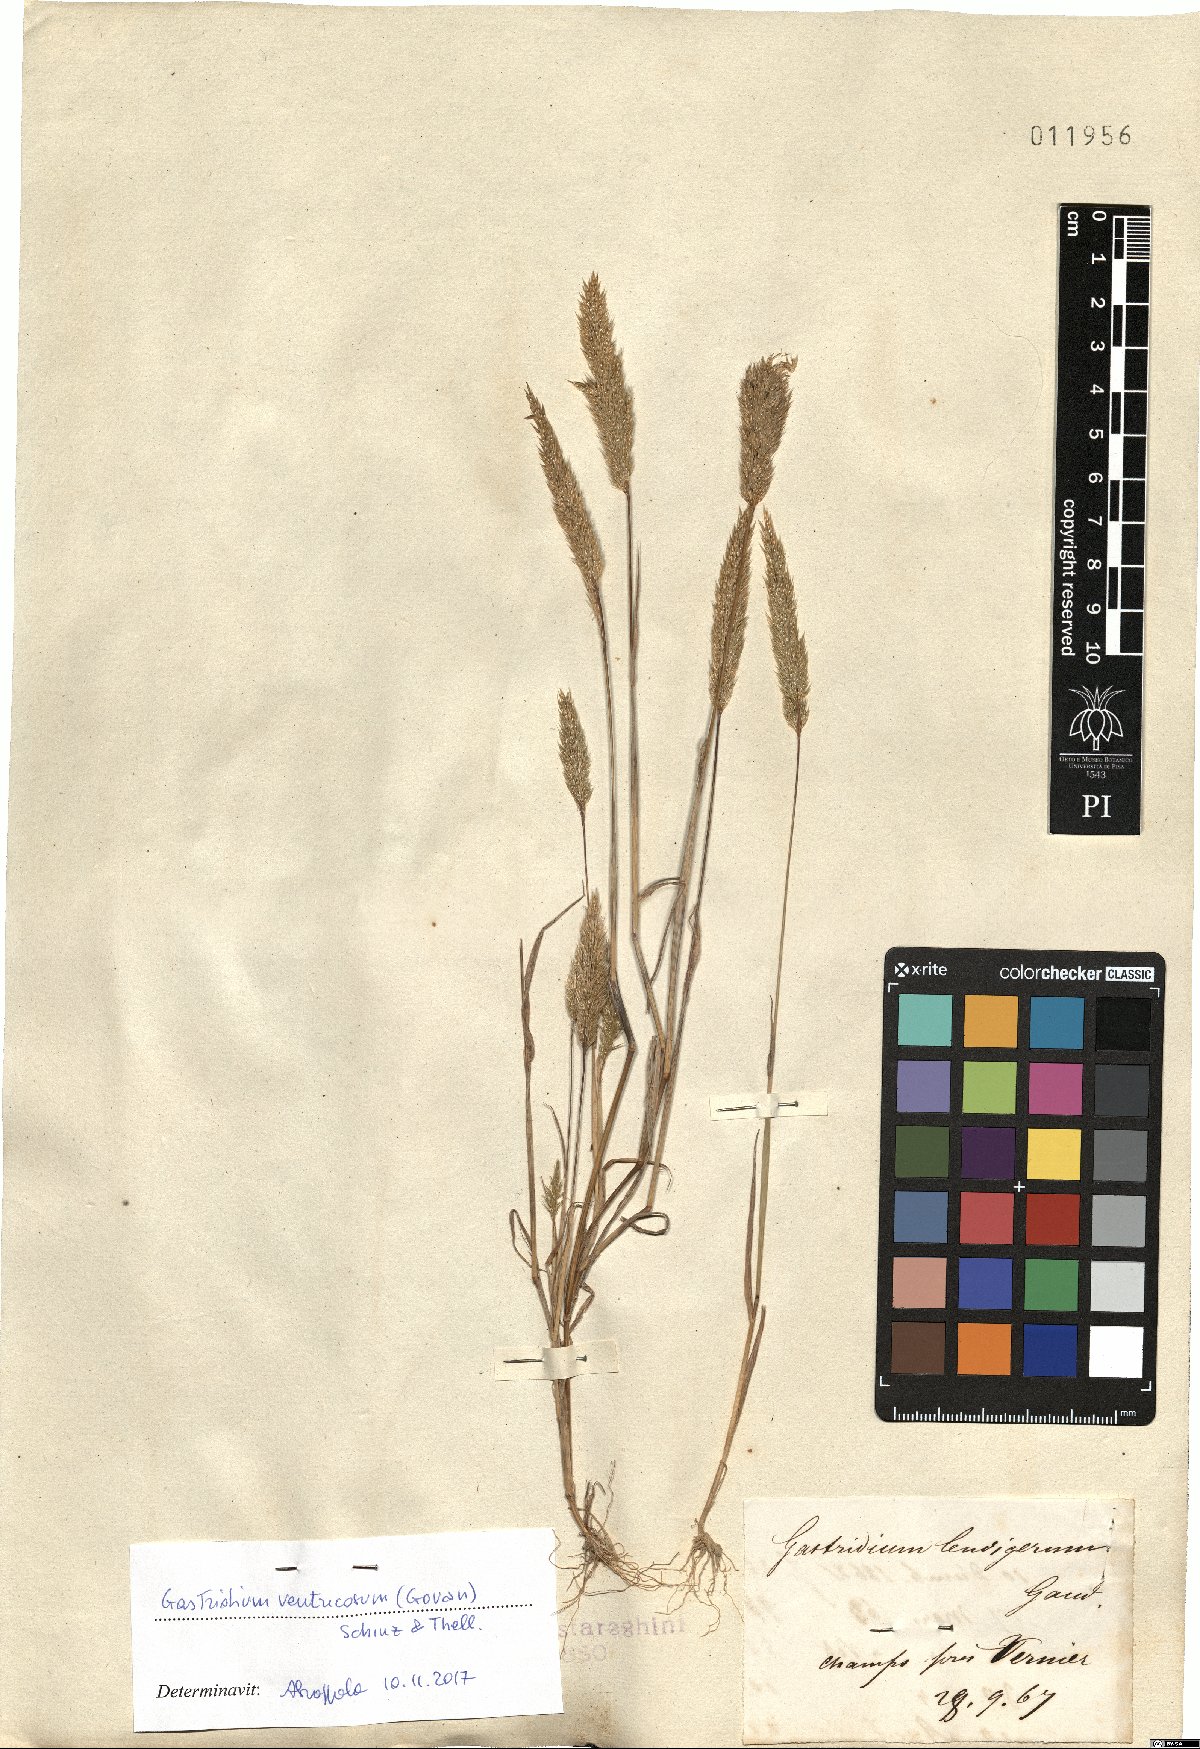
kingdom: Plantae
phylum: Tracheophyta
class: Liliopsida
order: Poales
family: Poaceae
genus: Gastridium
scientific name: Gastridium ventricosum
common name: Nit-grass
